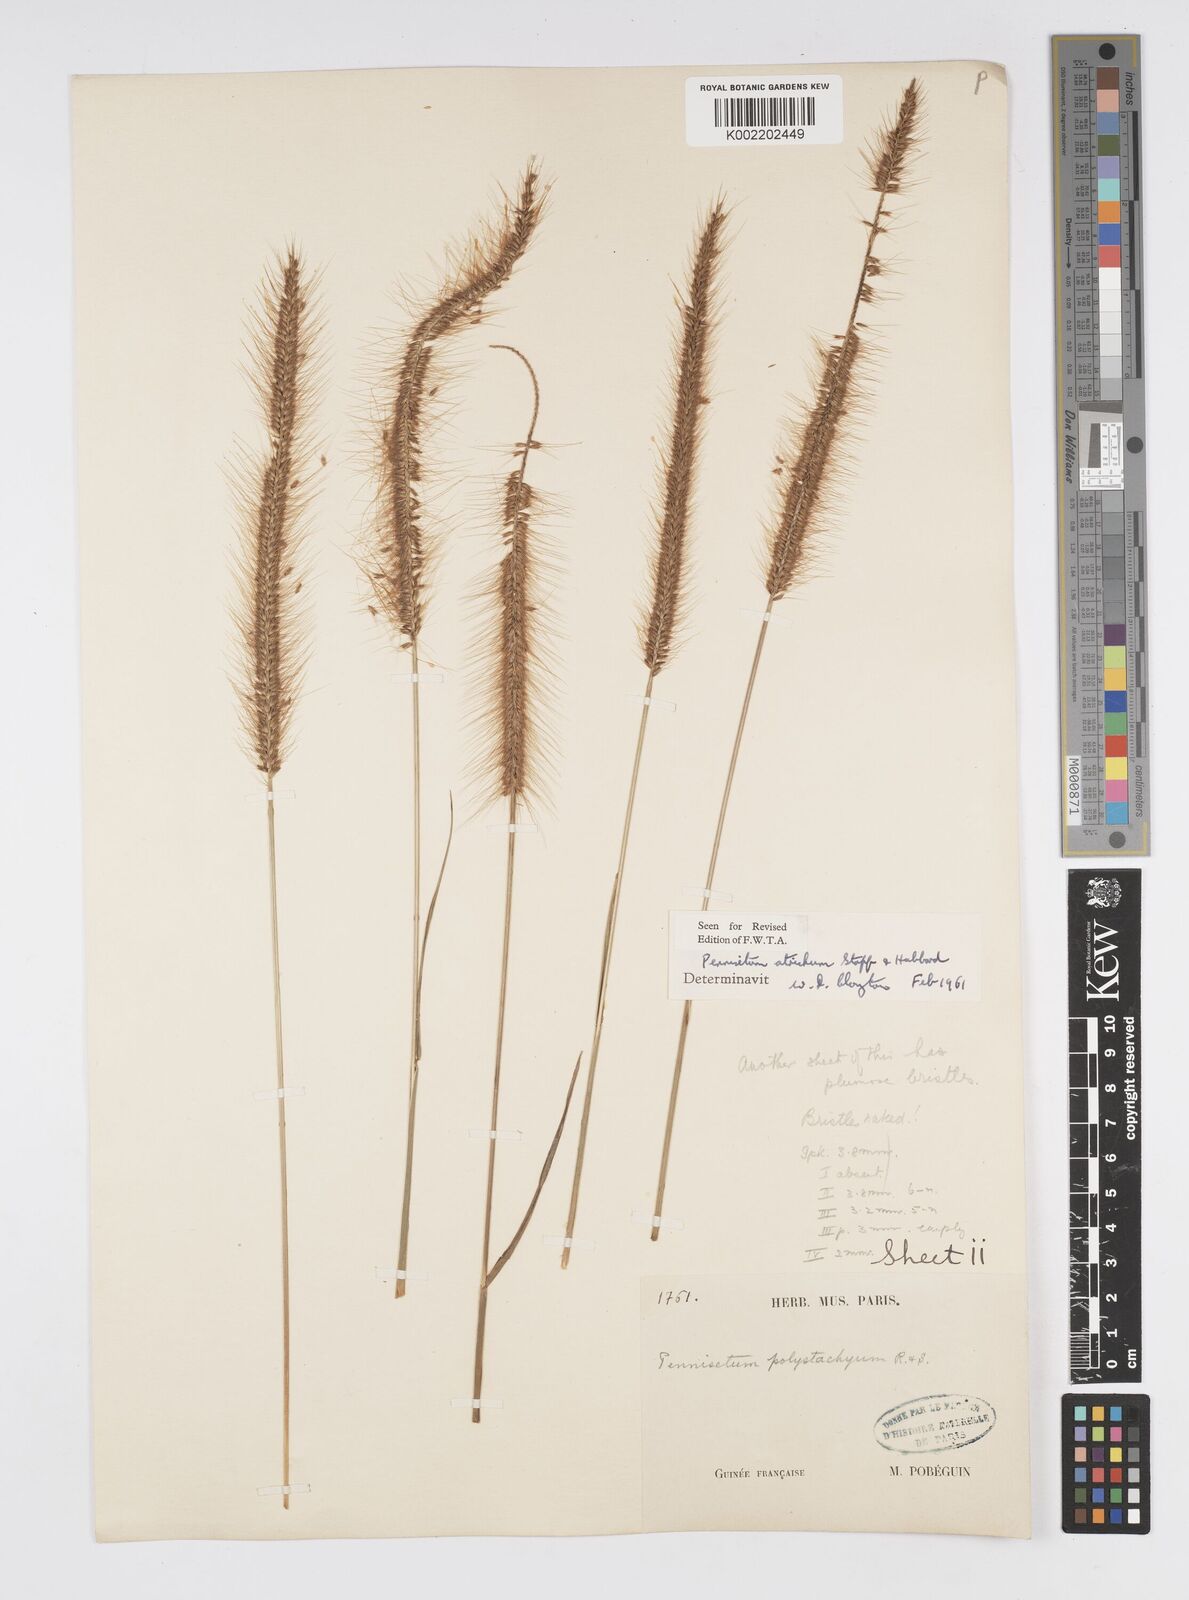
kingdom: Plantae
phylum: Tracheophyta
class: Liliopsida
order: Poales
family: Poaceae
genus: Cenchrus
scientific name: Cenchrus setosus
